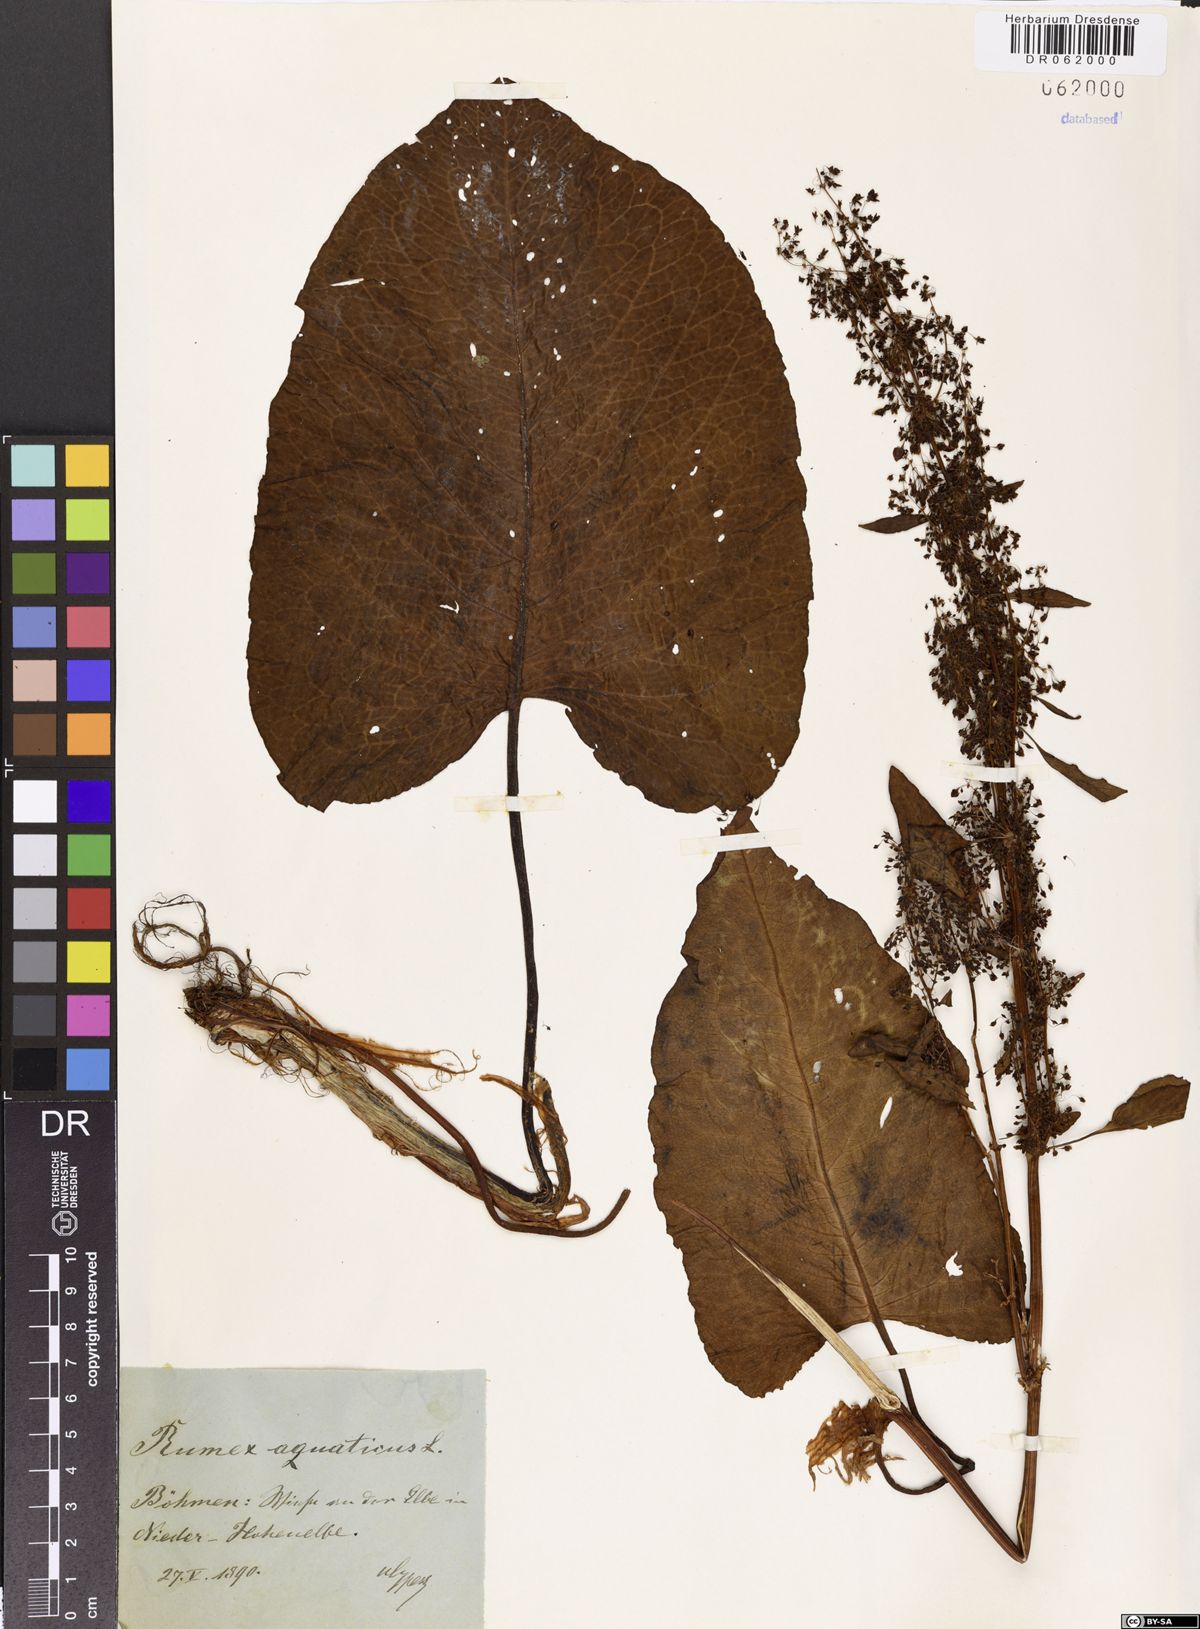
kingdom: Plantae
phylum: Tracheophyta
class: Magnoliopsida
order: Caryophyllales
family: Polygonaceae
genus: Rumex
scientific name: Rumex aquaticus
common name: Scottish dock
